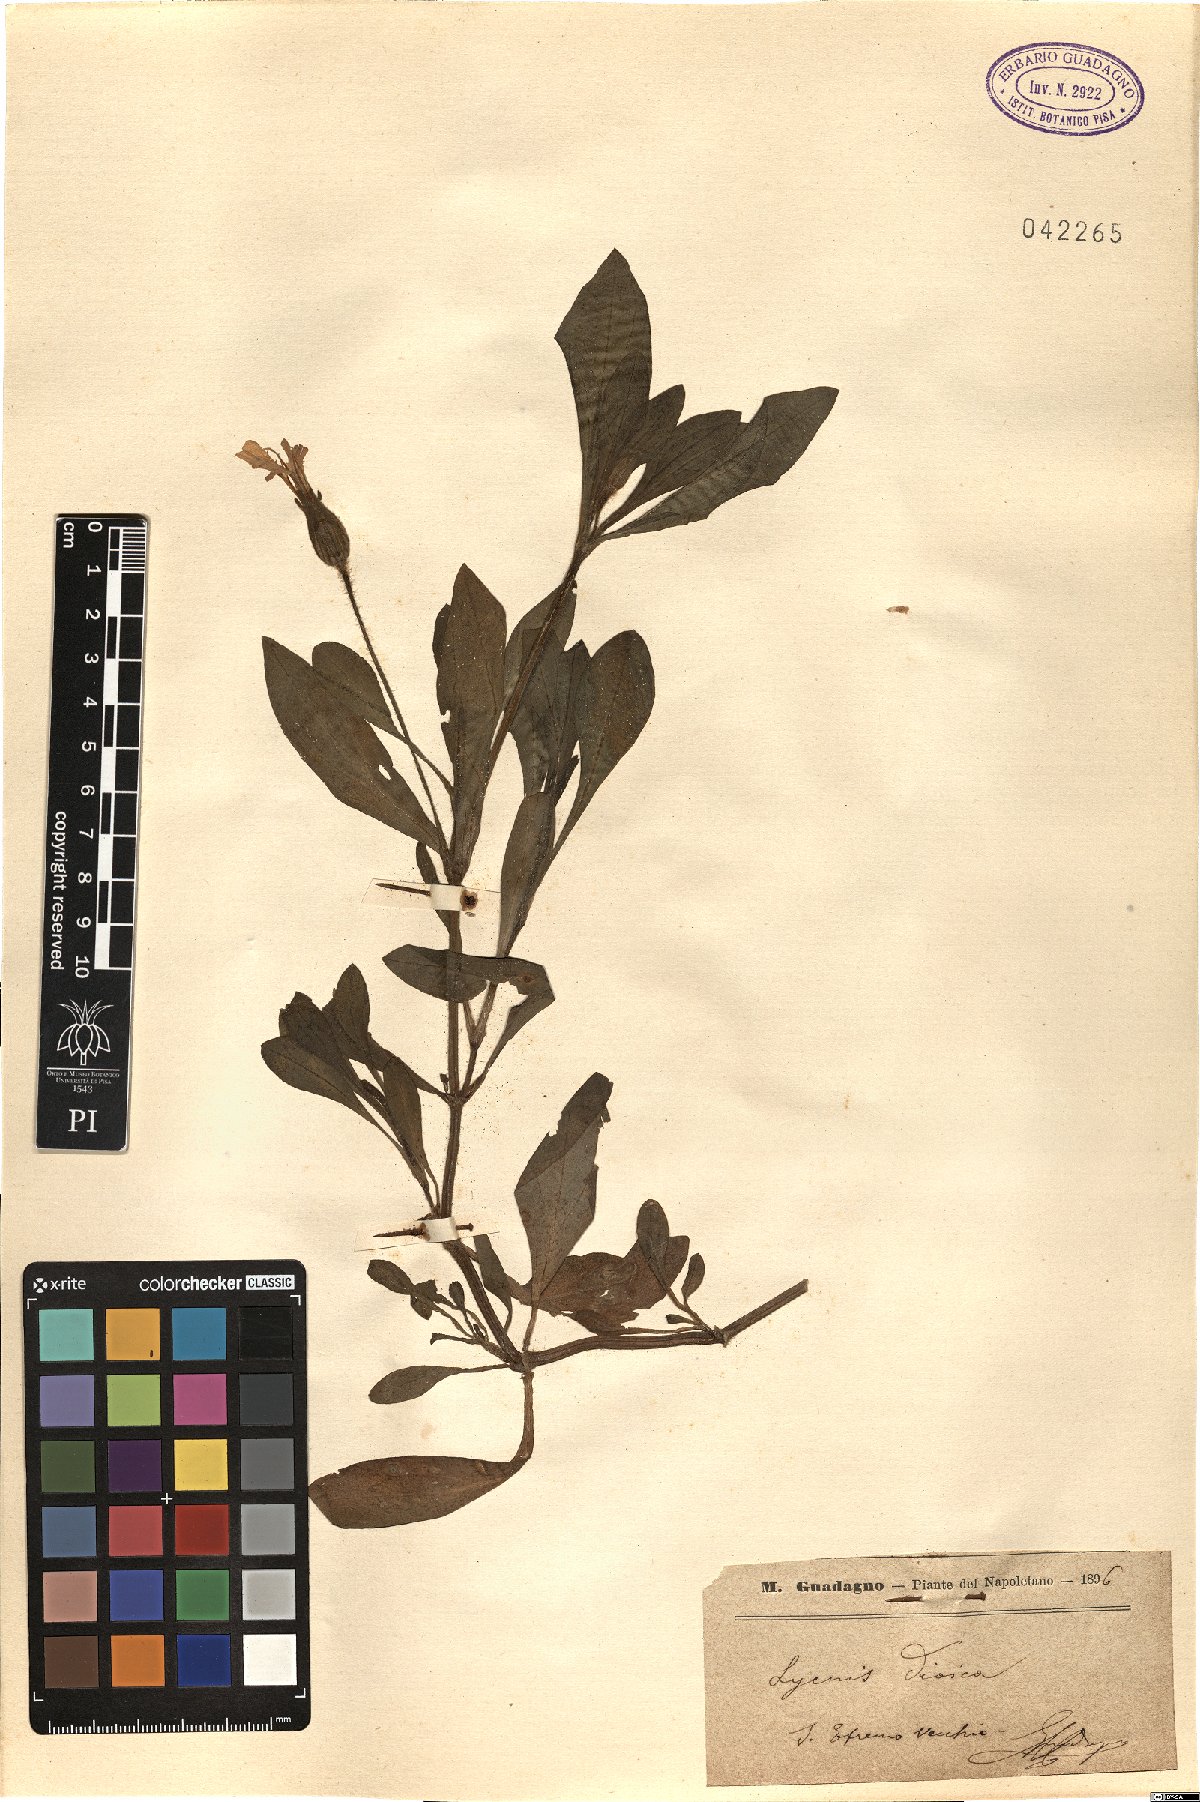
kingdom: Plantae
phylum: Tracheophyta
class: Magnoliopsida
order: Caryophyllales
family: Caryophyllaceae
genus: Silene
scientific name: Silene dioica
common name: Red campion
